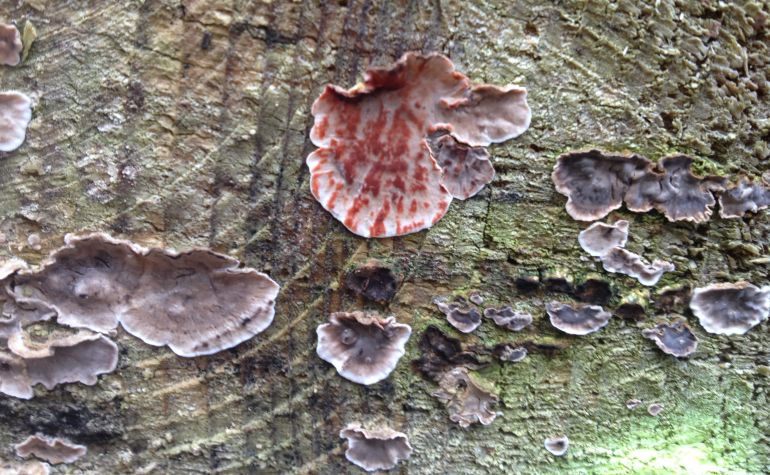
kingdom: Fungi
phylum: Basidiomycota
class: Agaricomycetes
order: Russulales
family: Stereaceae
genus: Stereum
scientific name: Stereum sanguinolentum
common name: blødende lædersvamp
